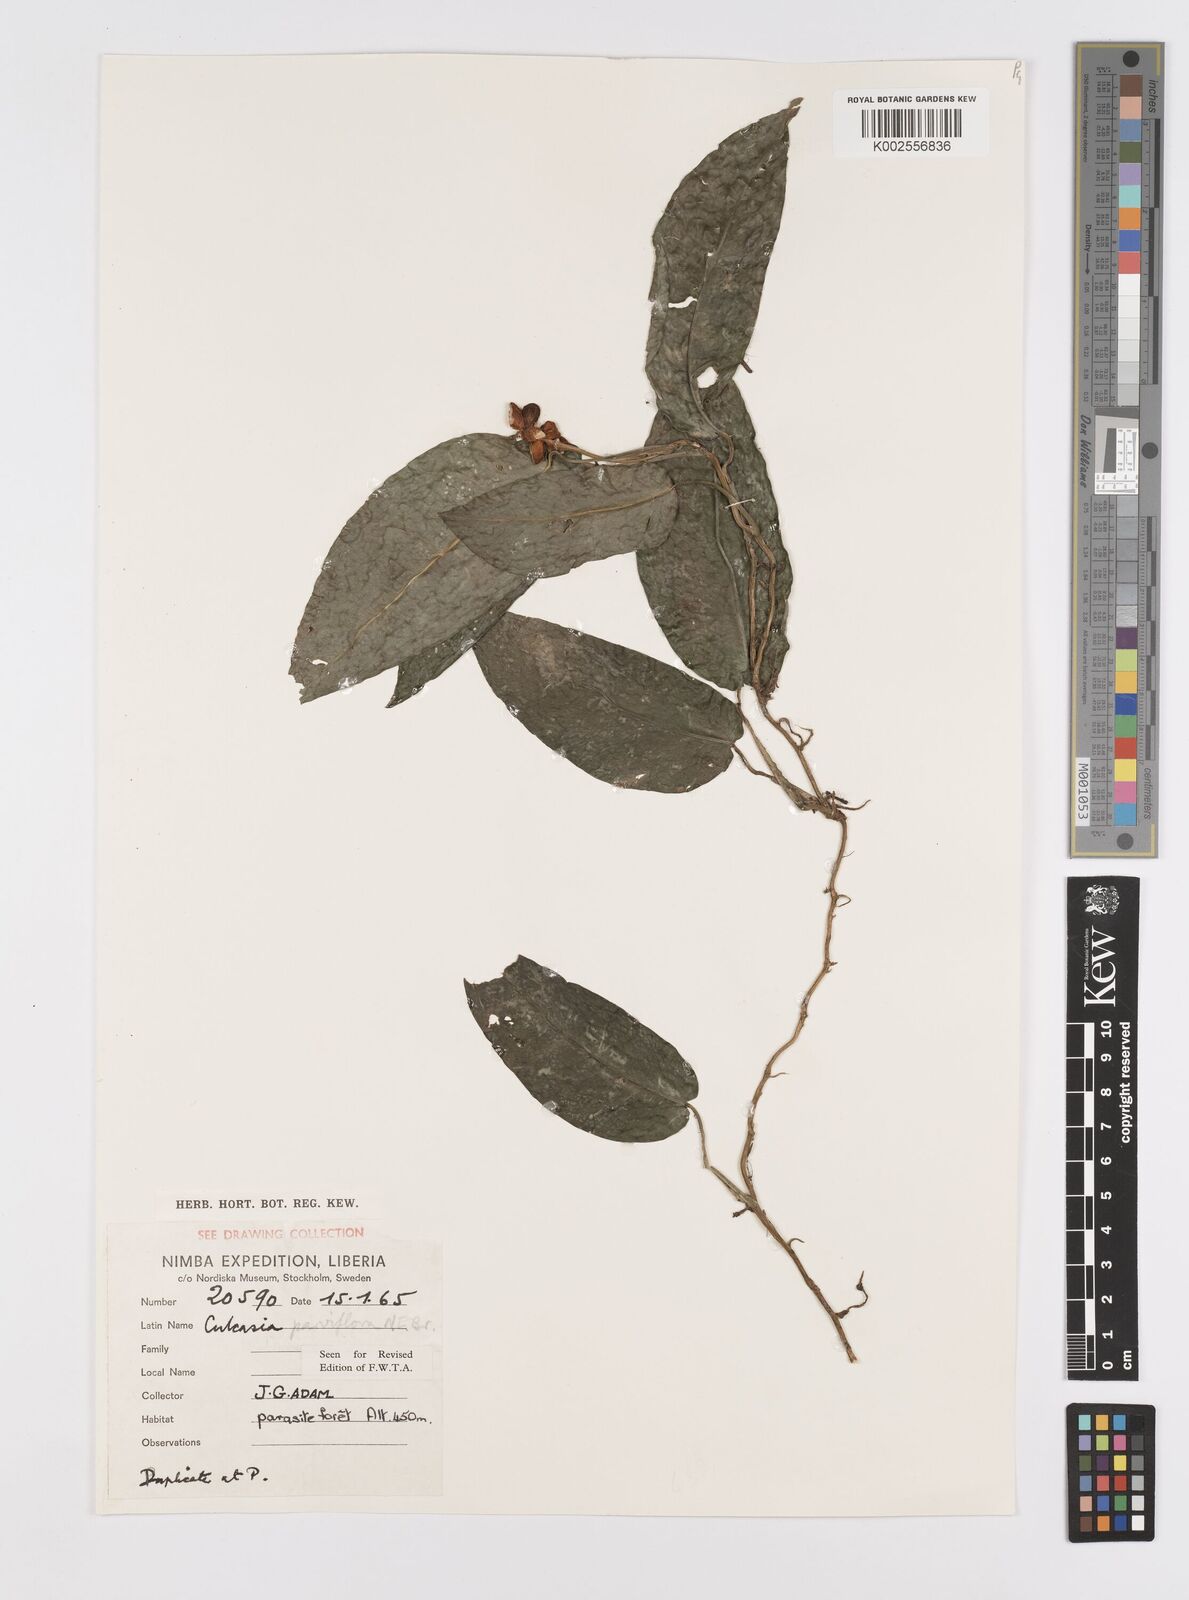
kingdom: Plantae
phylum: Tracheophyta
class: Liliopsida
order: Alismatales
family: Araceae
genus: Culcasia
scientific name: Culcasia parviflora
